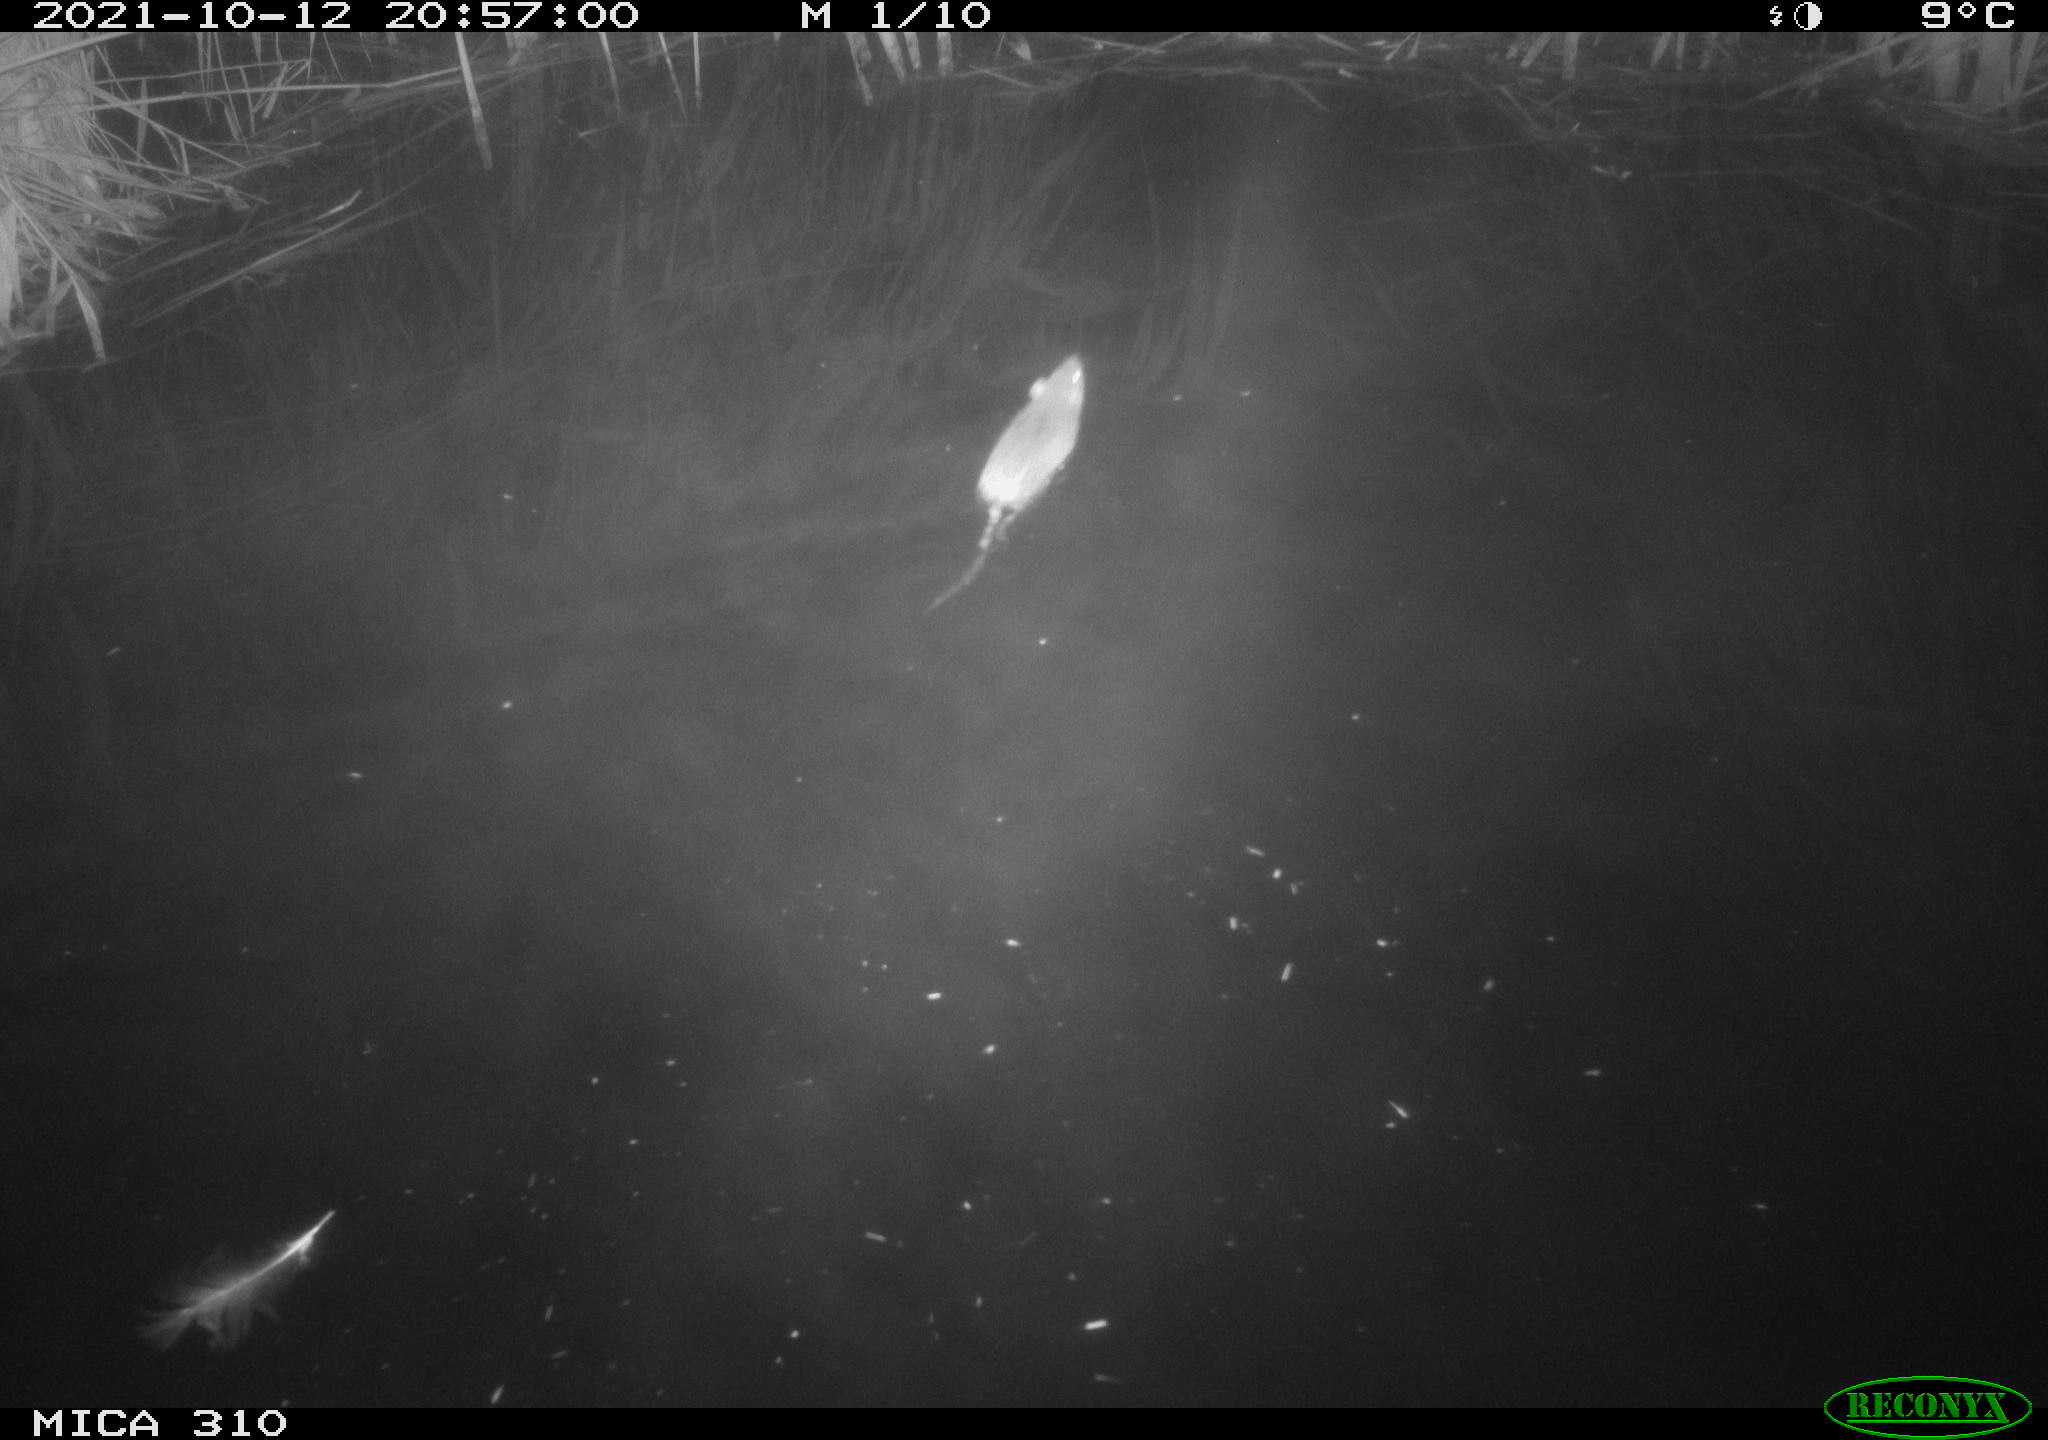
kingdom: Animalia
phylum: Chordata
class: Mammalia
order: Rodentia
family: Muridae
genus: Rattus
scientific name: Rattus norvegicus
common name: Brown rat
